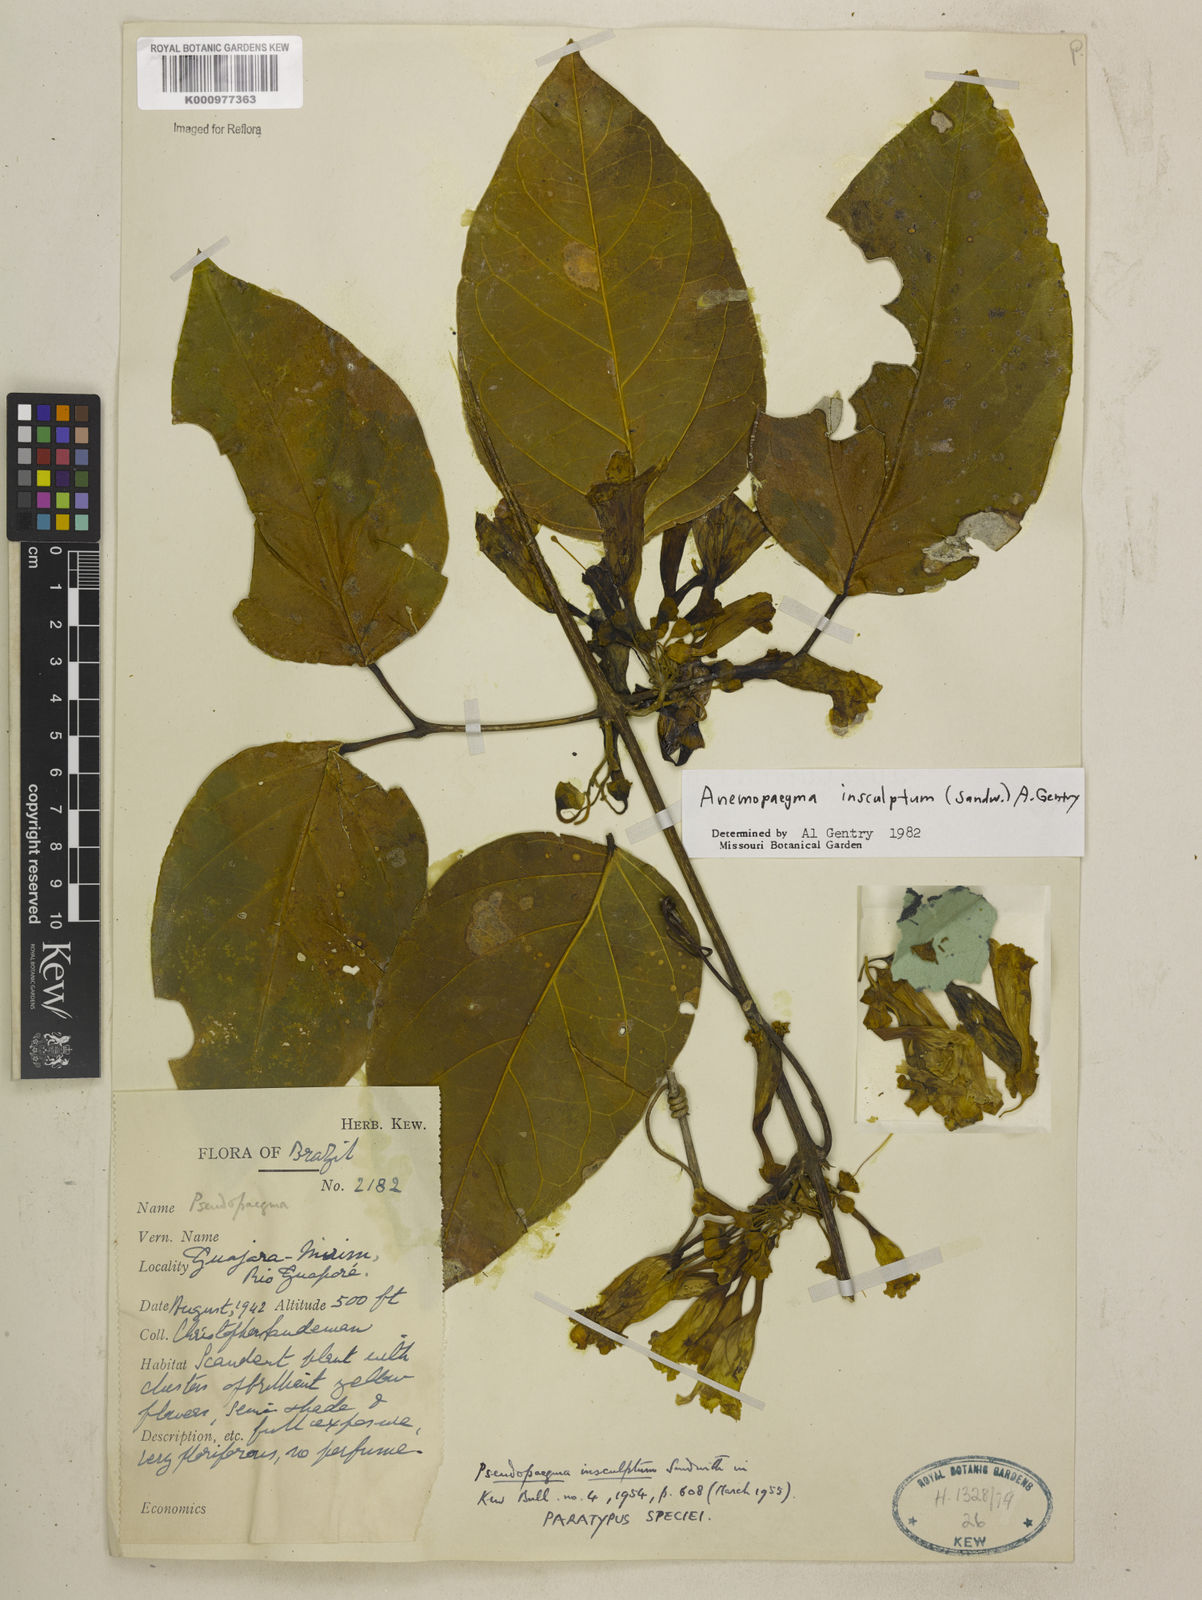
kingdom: Plantae
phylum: Tracheophyta
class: Magnoliopsida
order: Lamiales
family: Bignoniaceae
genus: Anemopaegma
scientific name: Anemopaegma insculptum
